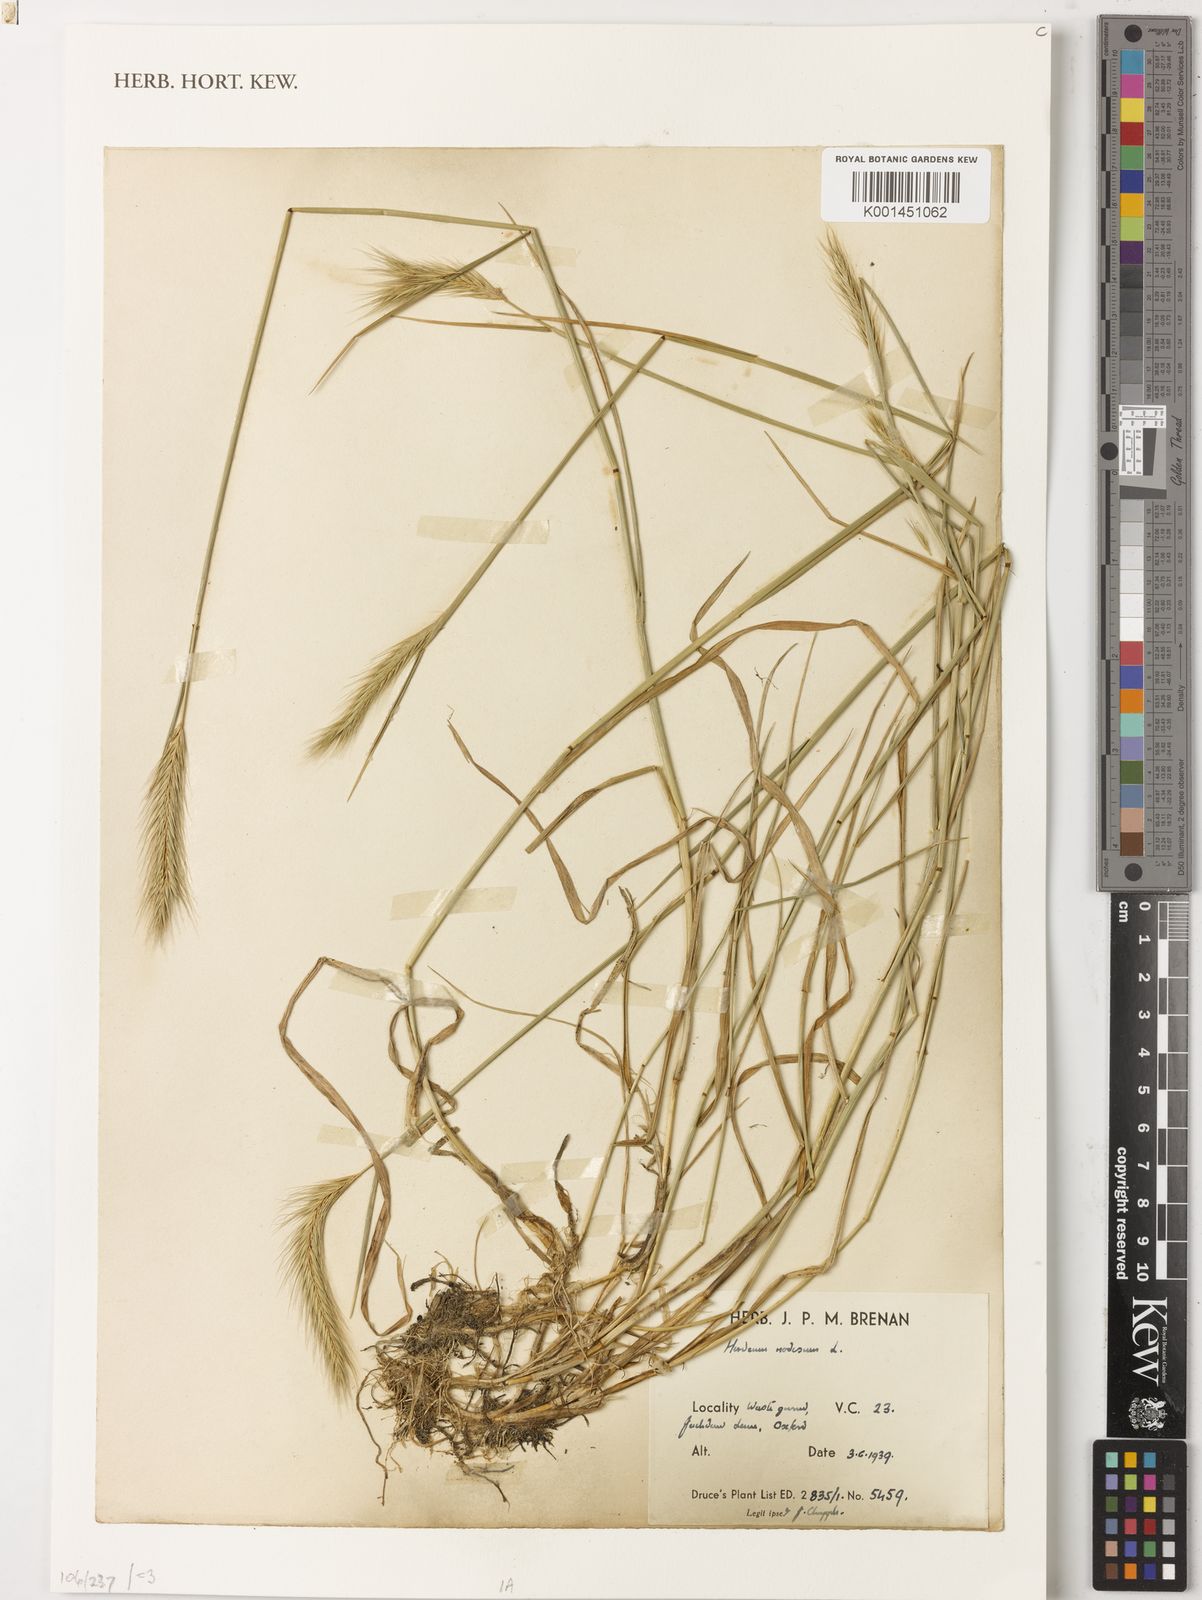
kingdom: Plantae
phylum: Tracheophyta
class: Liliopsida
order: Poales
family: Poaceae
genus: Hordeum
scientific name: Hordeum bulbosum
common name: Bulbous barley
